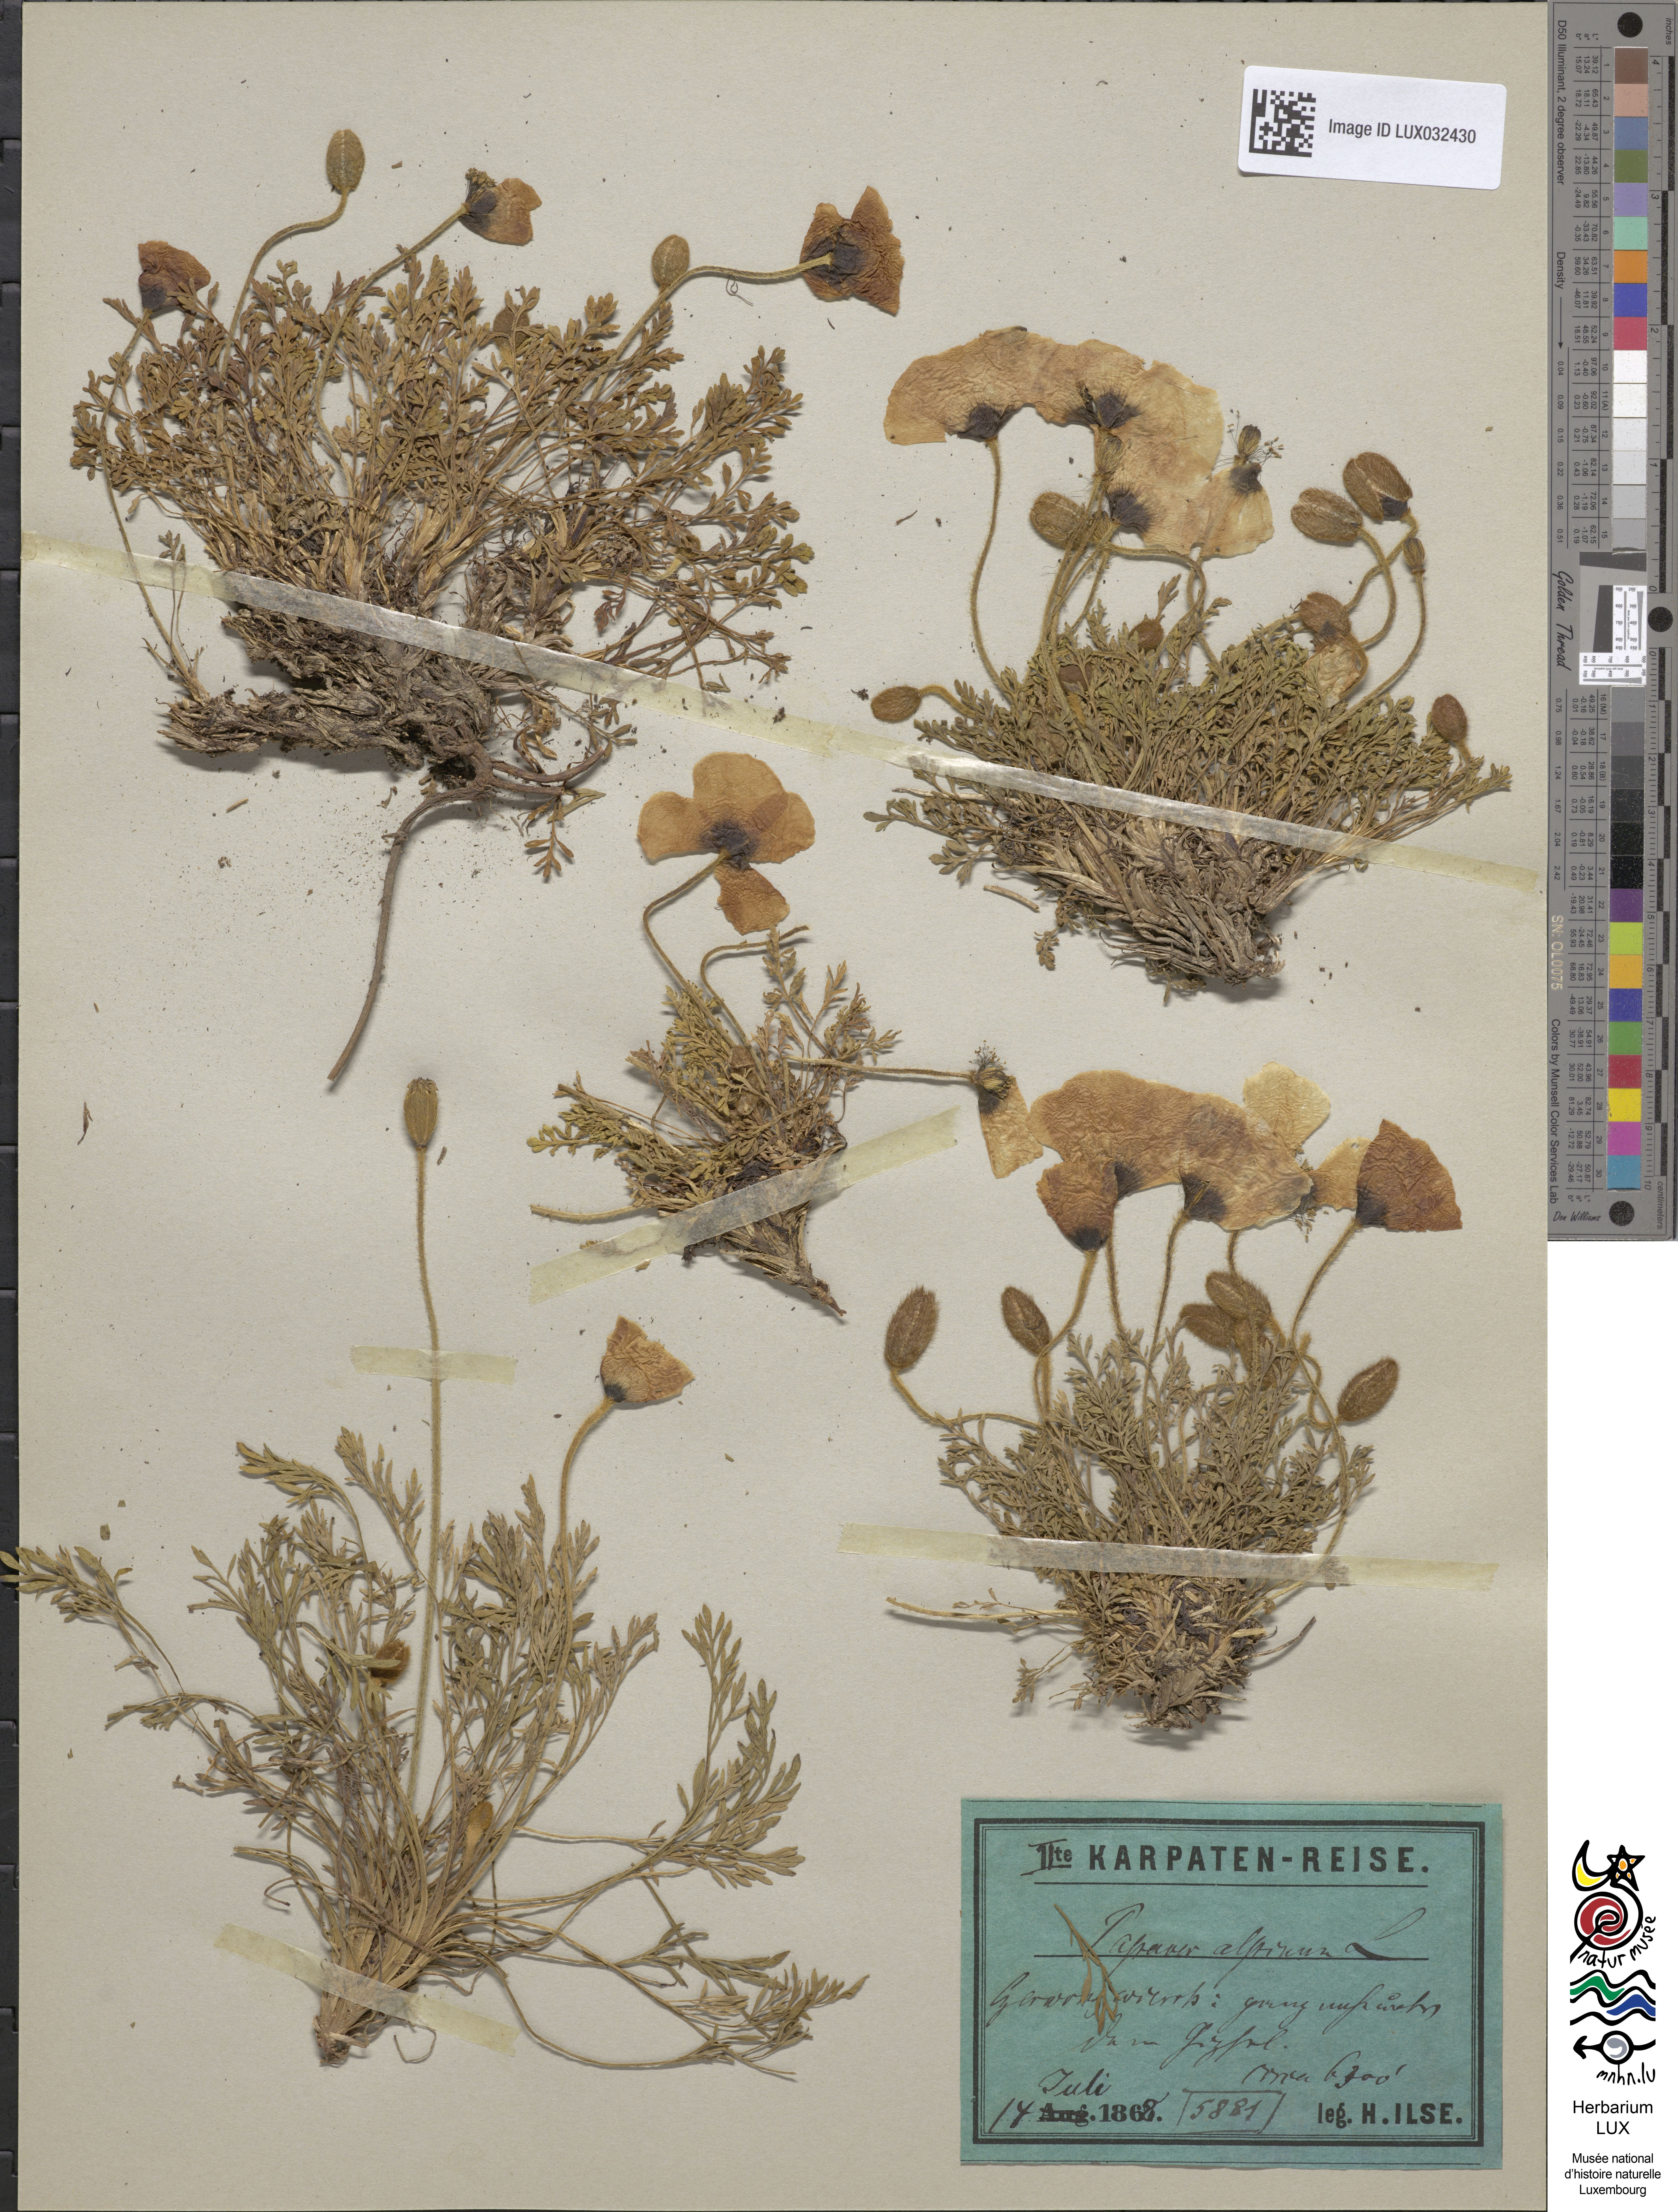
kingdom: Plantae
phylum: Tracheophyta
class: Magnoliopsida
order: Ranunculales
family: Papaveraceae
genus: Papaver
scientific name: Papaver alpinum
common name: Austrian poppy
